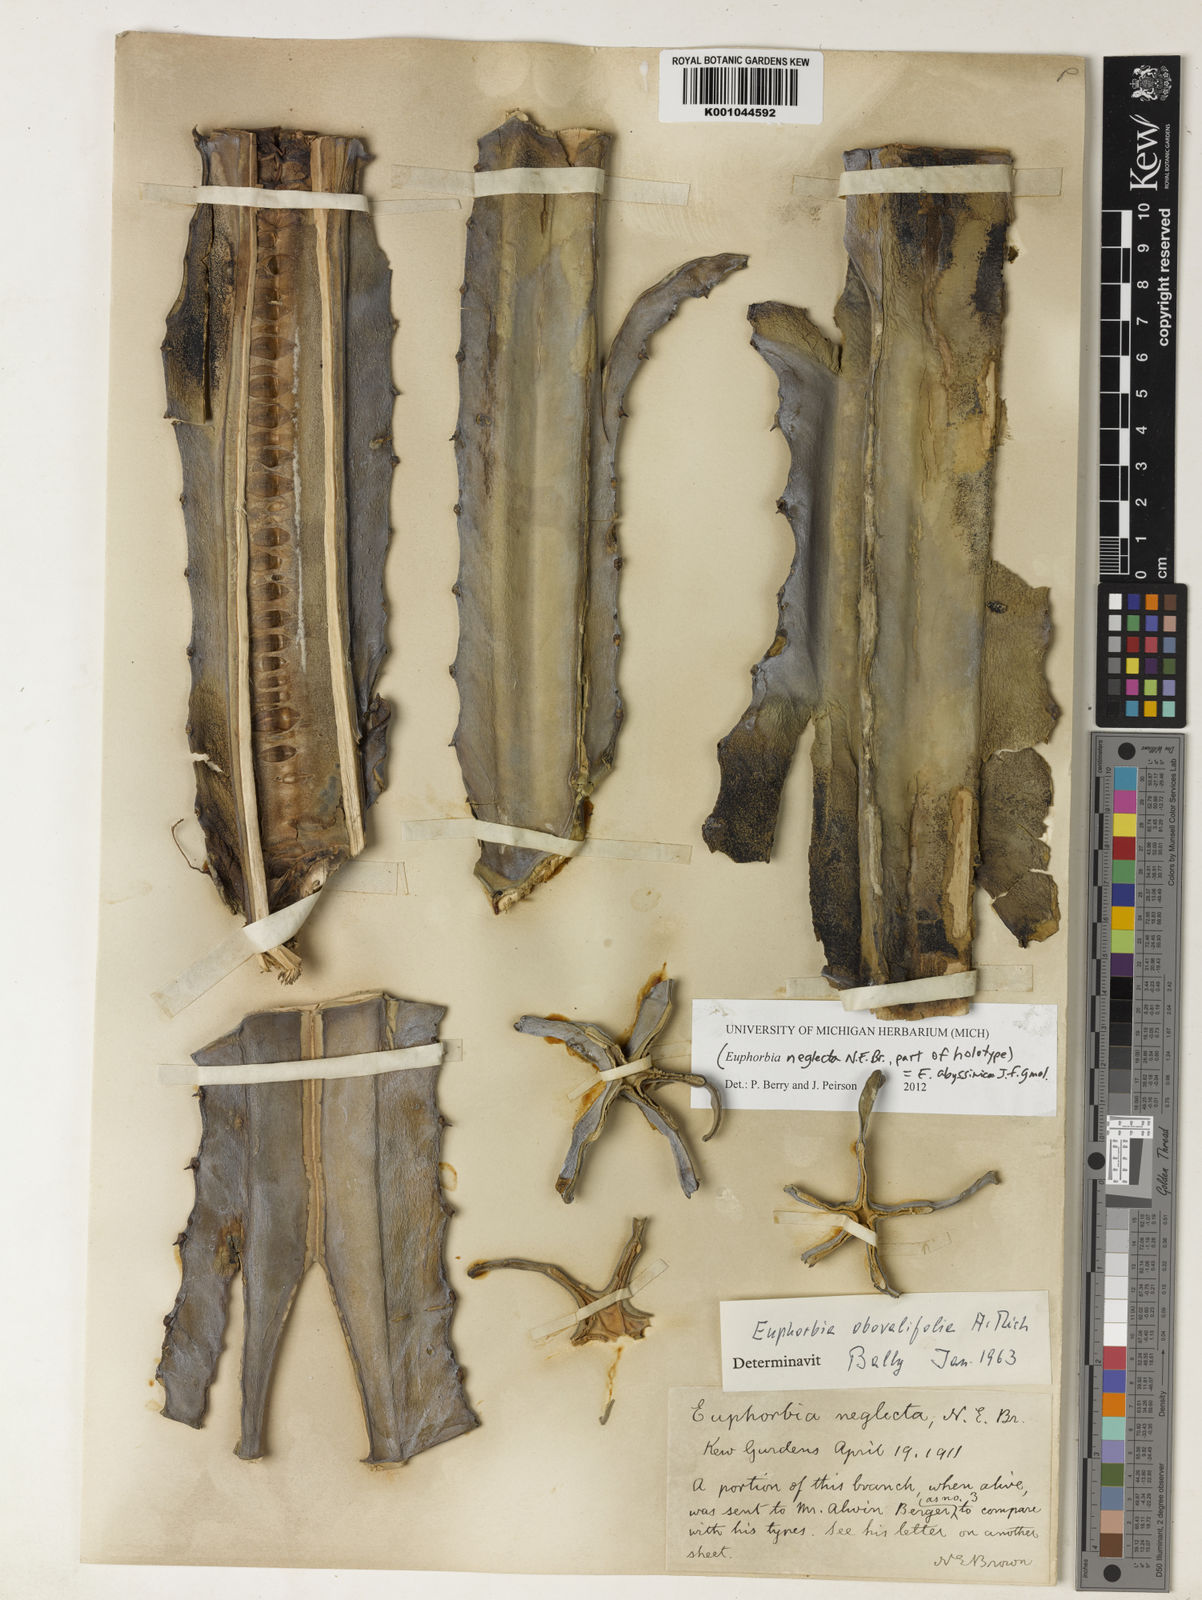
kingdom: Plantae
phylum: Tracheophyta
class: Magnoliopsida
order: Malpighiales
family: Euphorbiaceae
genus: Euphorbia
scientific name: Euphorbia abyssinica
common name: Abyssinian spurge
